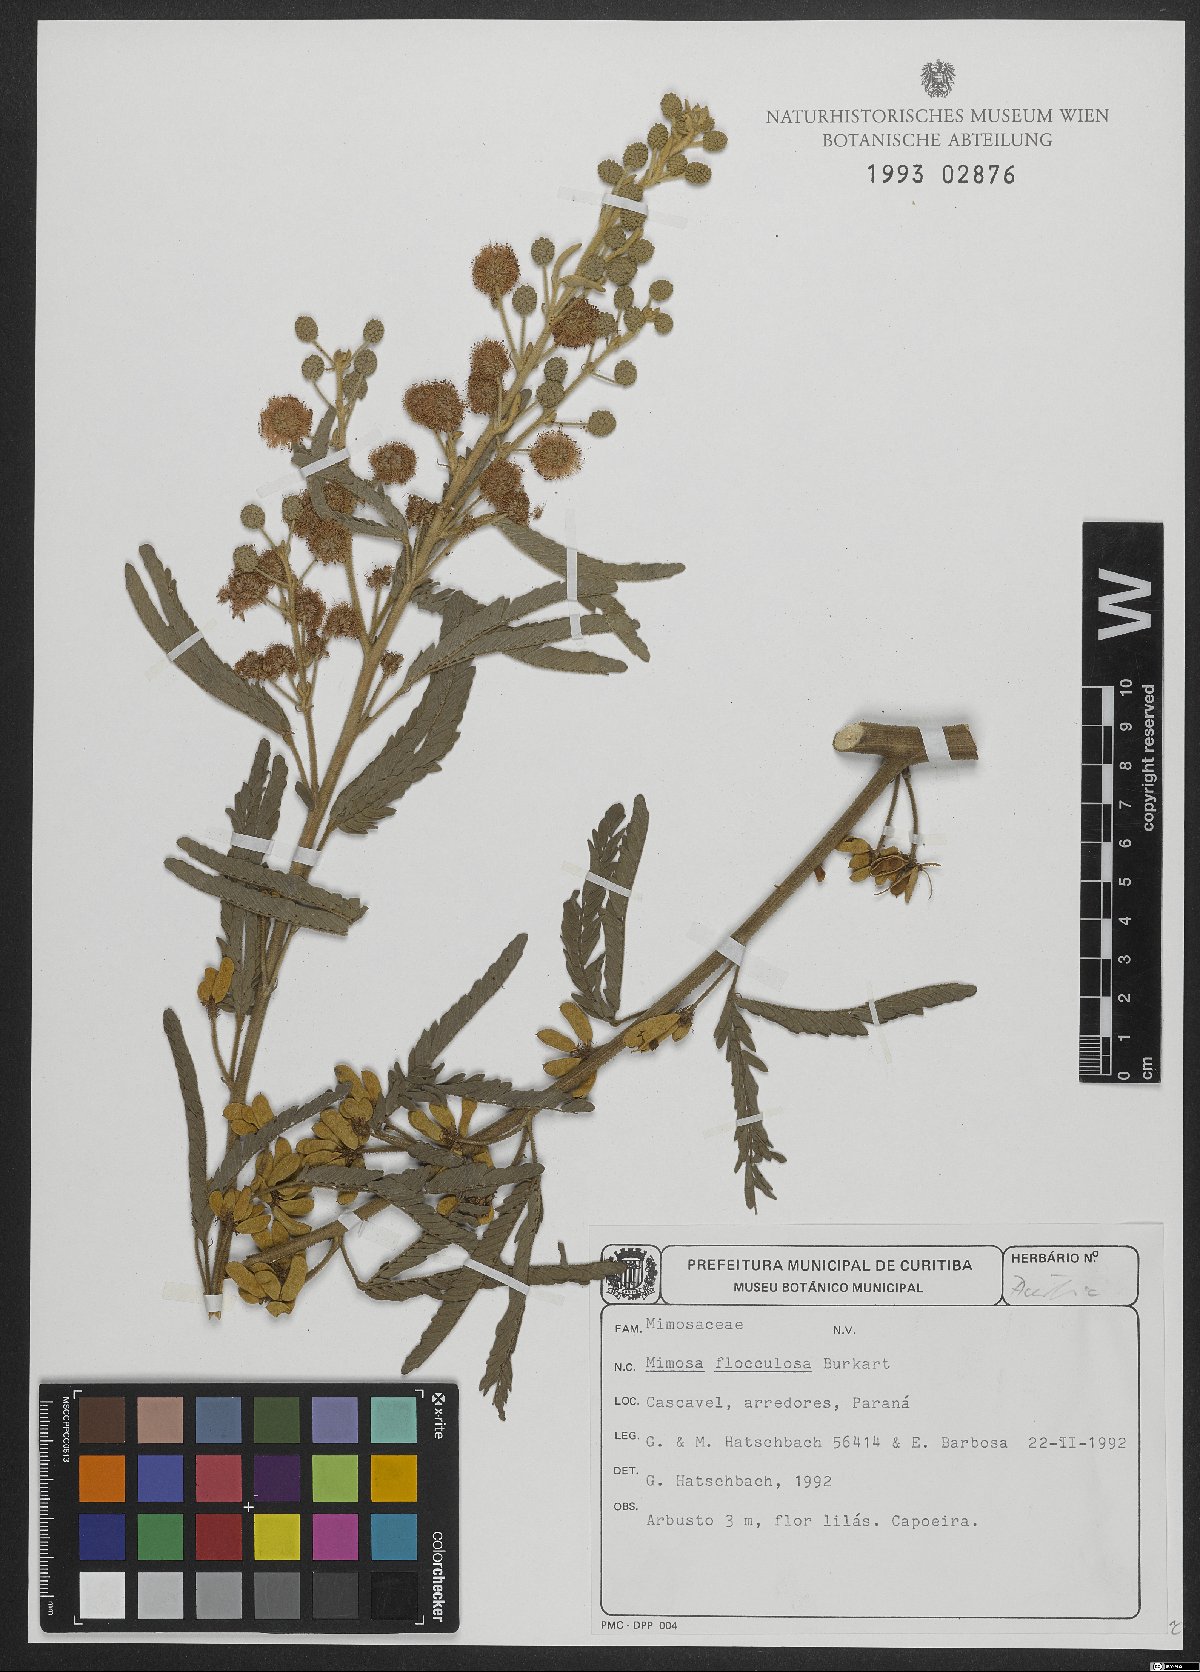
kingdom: Plantae
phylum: Tracheophyta
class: Magnoliopsida
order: Fabales
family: Fabaceae
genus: Mimosa
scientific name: Mimosa flocculosa
